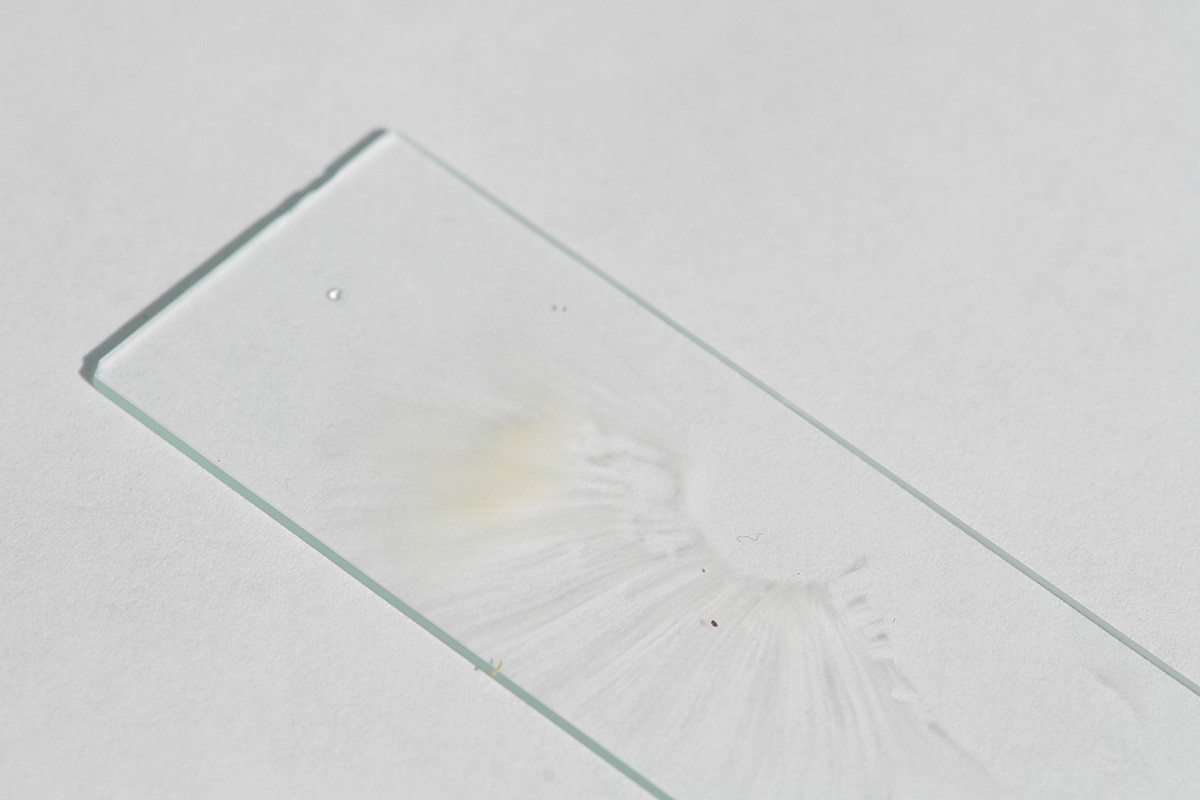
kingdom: Fungi
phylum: Basidiomycota
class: Agaricomycetes
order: Russulales
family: Russulaceae
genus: Russula
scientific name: Russula brunneoviolacea
